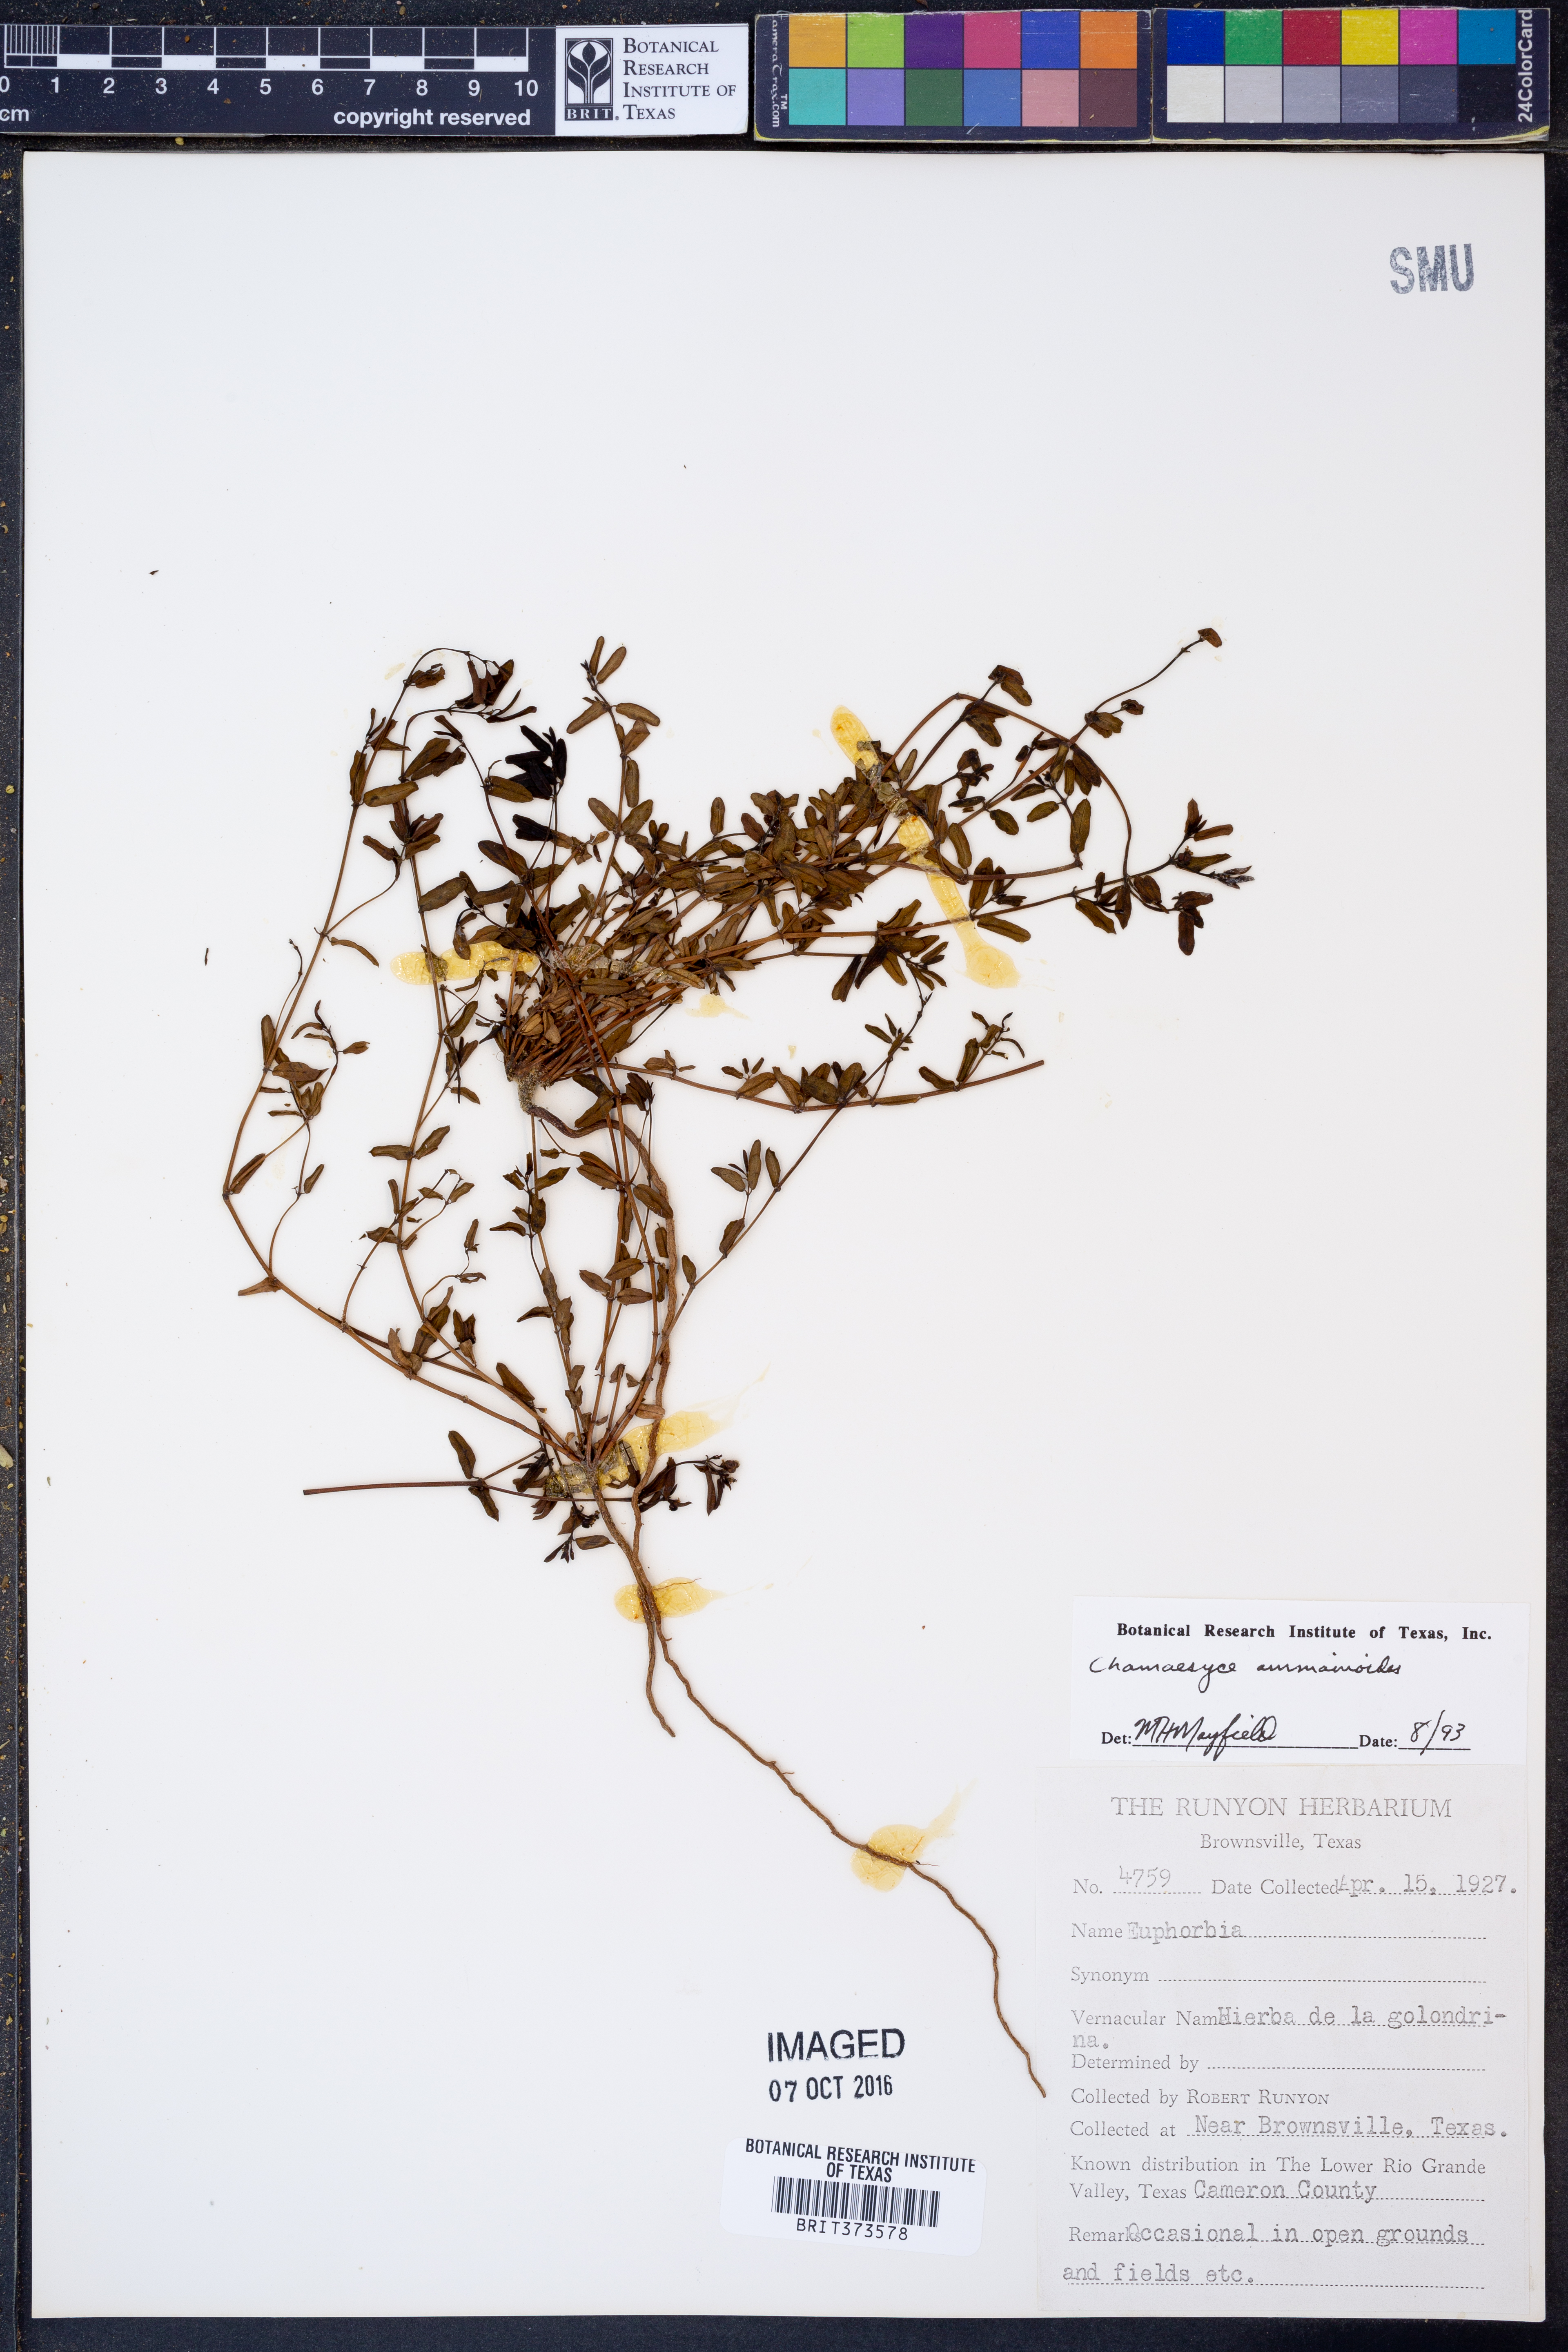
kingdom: Plantae
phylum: Tracheophyta
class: Magnoliopsida
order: Malpighiales
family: Euphorbiaceae
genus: Euphorbia
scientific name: Euphorbia bombensis
